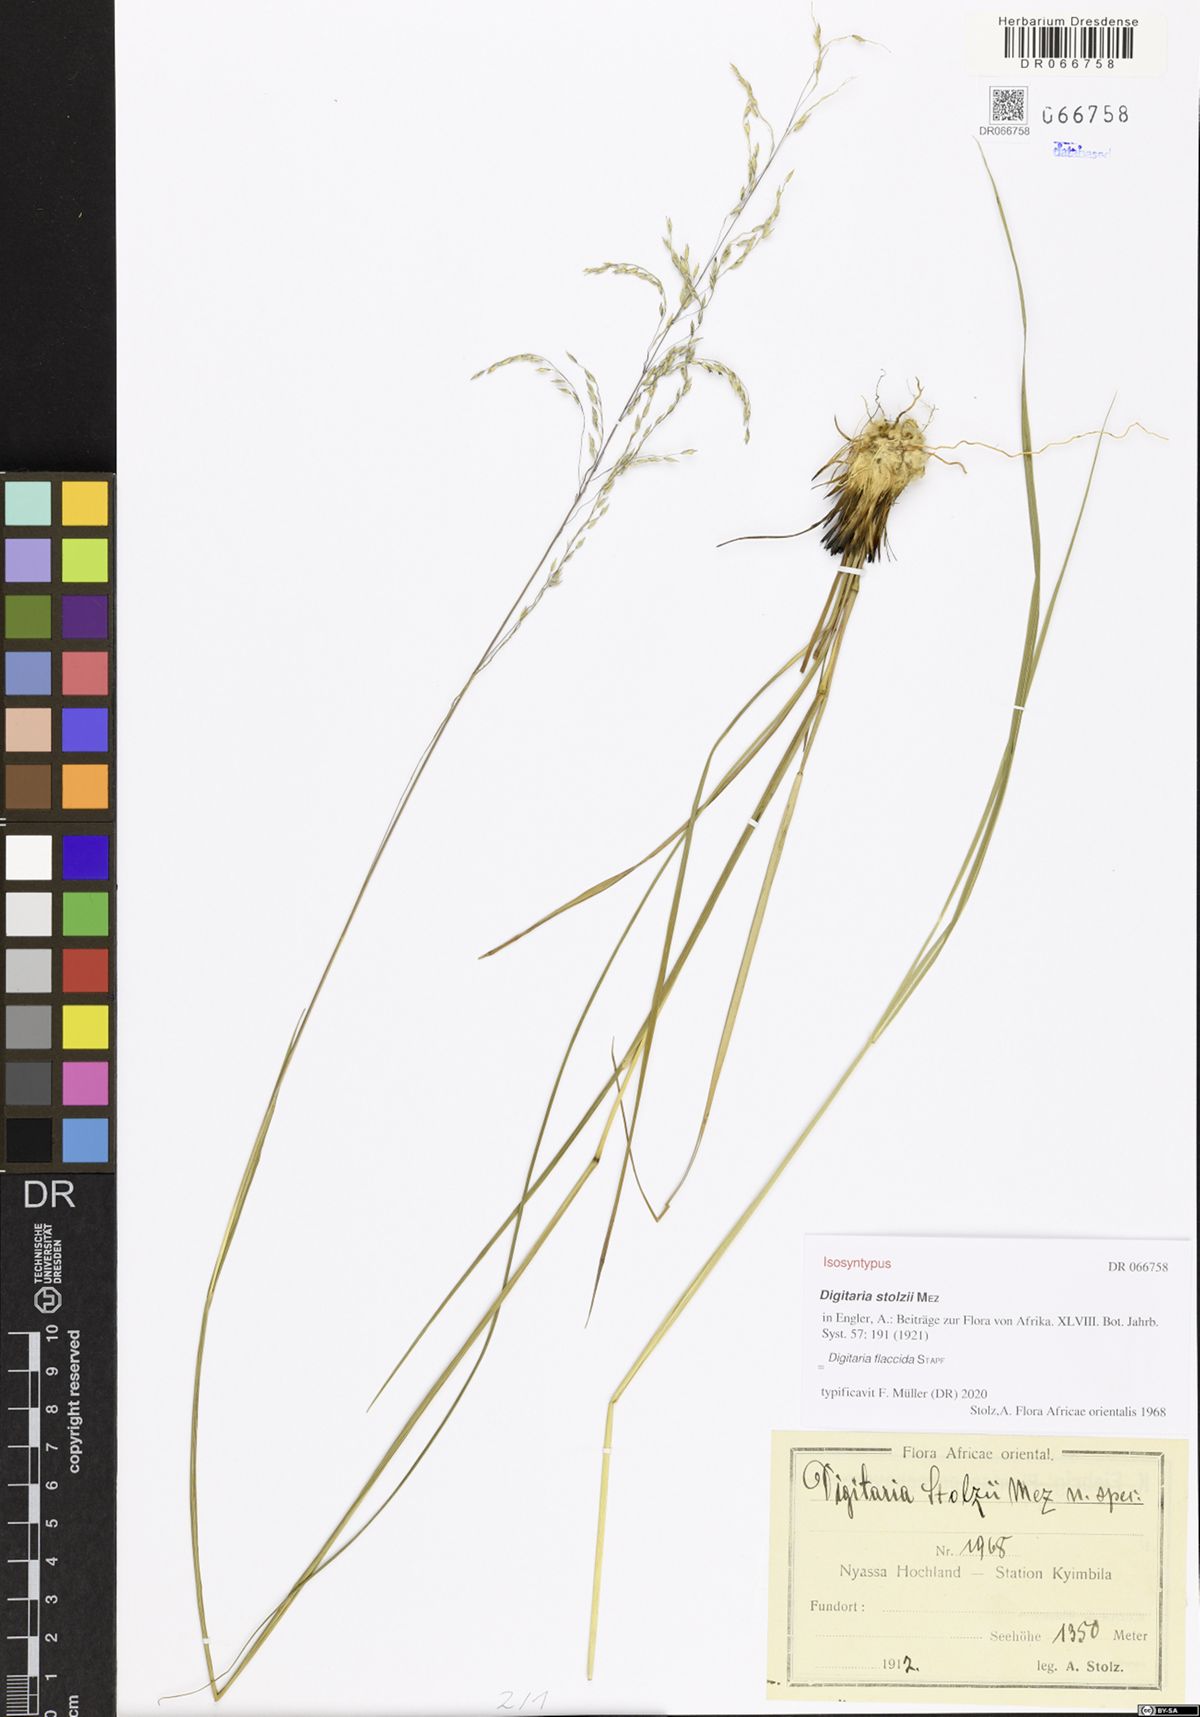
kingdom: Plantae
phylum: Tracheophyta
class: Liliopsida
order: Poales
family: Poaceae
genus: Digitaria
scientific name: Digitaria flaccida
